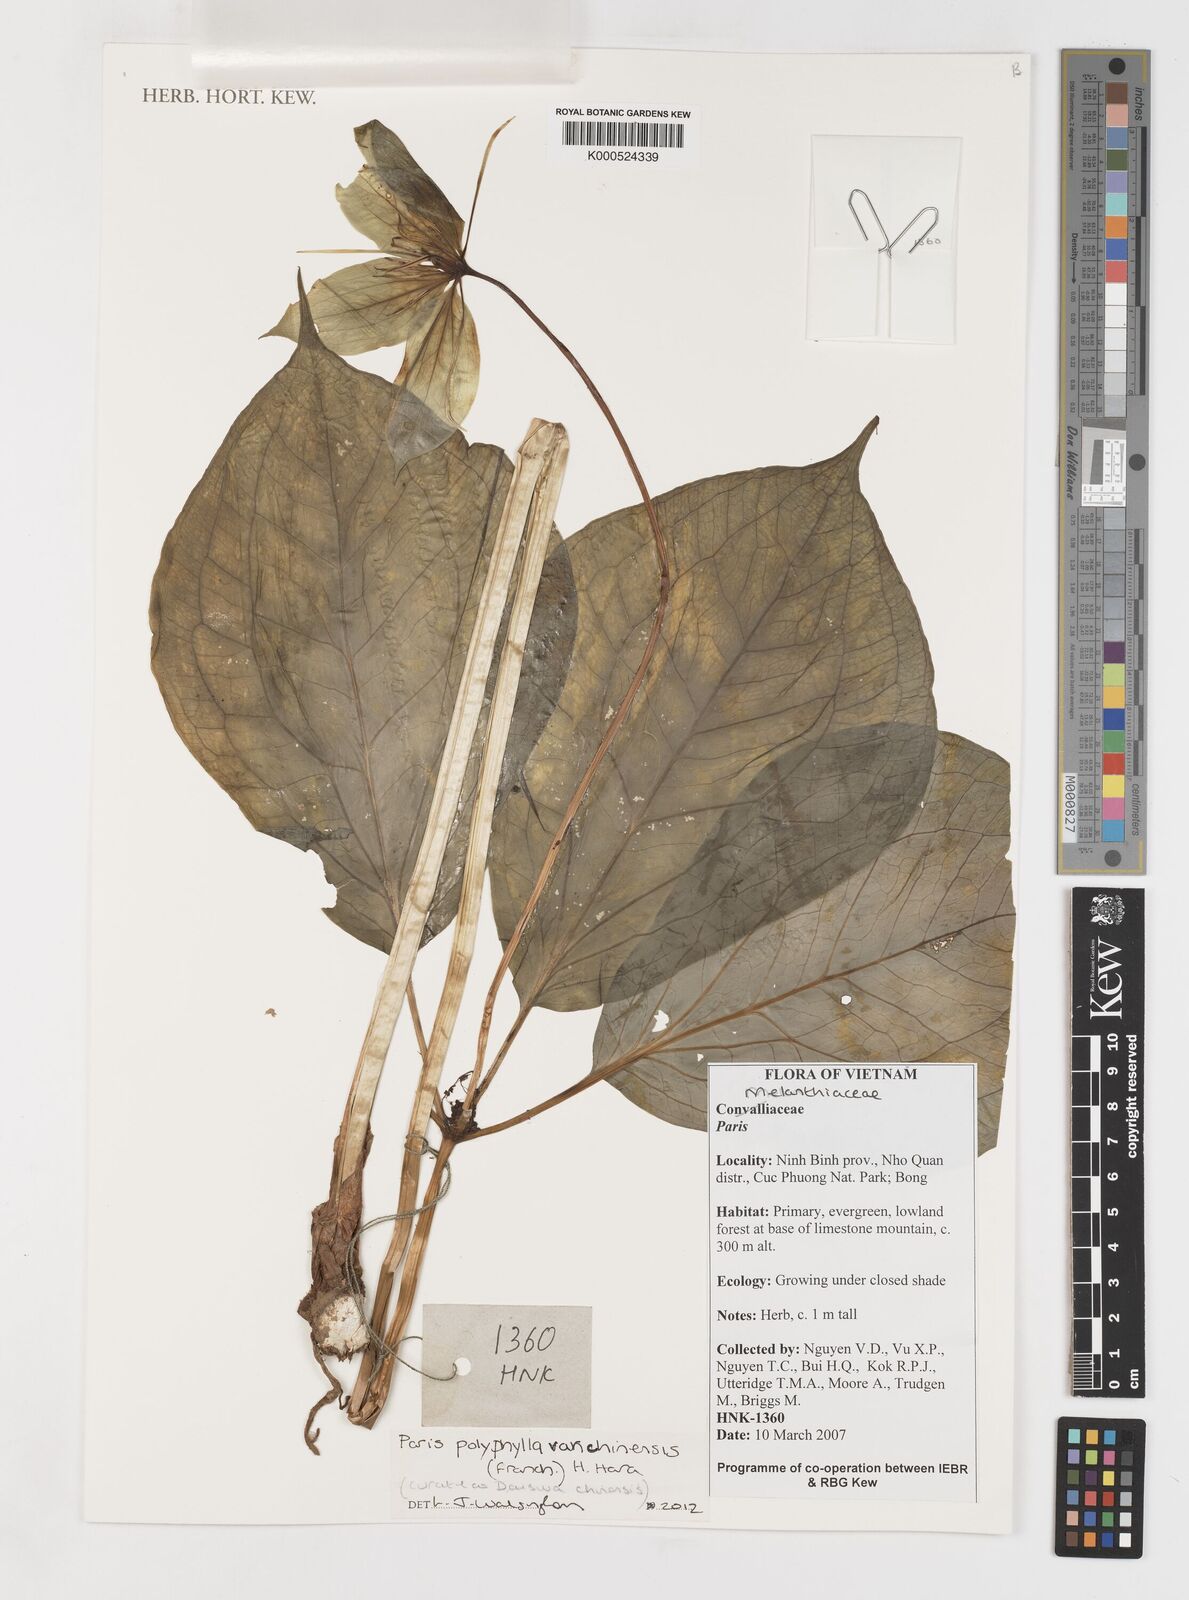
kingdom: Plantae
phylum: Tracheophyta
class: Liliopsida
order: Liliales
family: Melanthiaceae
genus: Paris
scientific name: Paris chinensis
